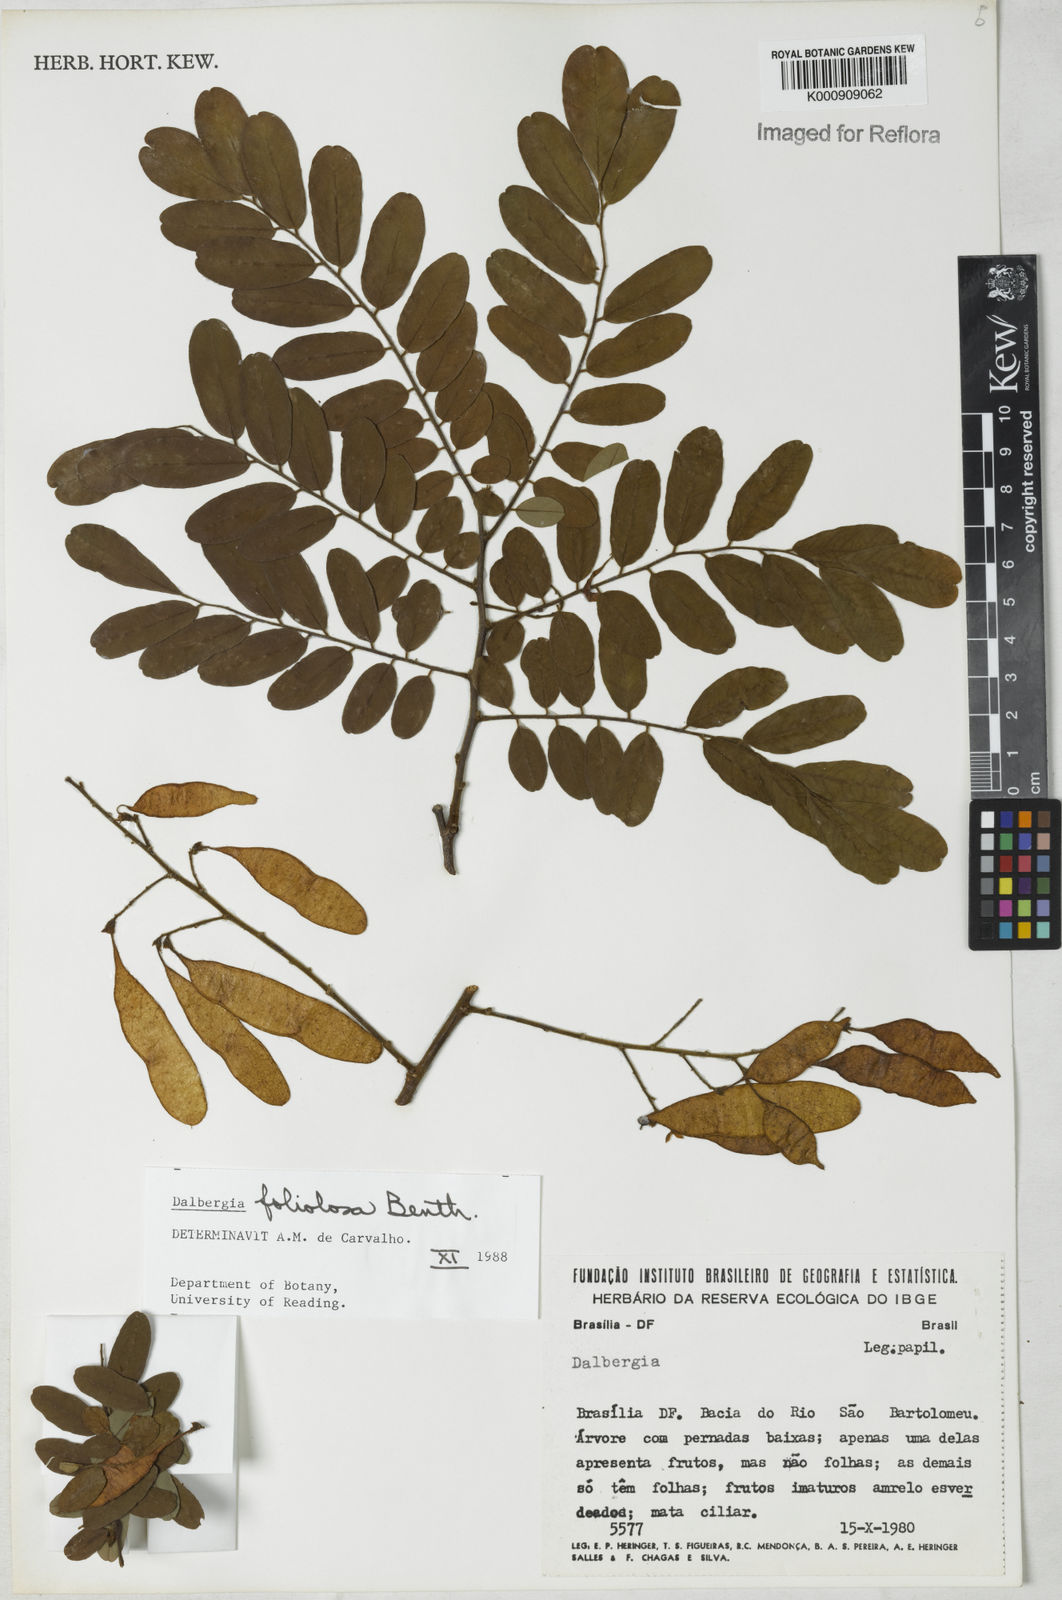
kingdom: Plantae
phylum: Tracheophyta
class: Magnoliopsida
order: Fabales
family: Fabaceae
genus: Dalbergia
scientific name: Dalbergia foliolosa
